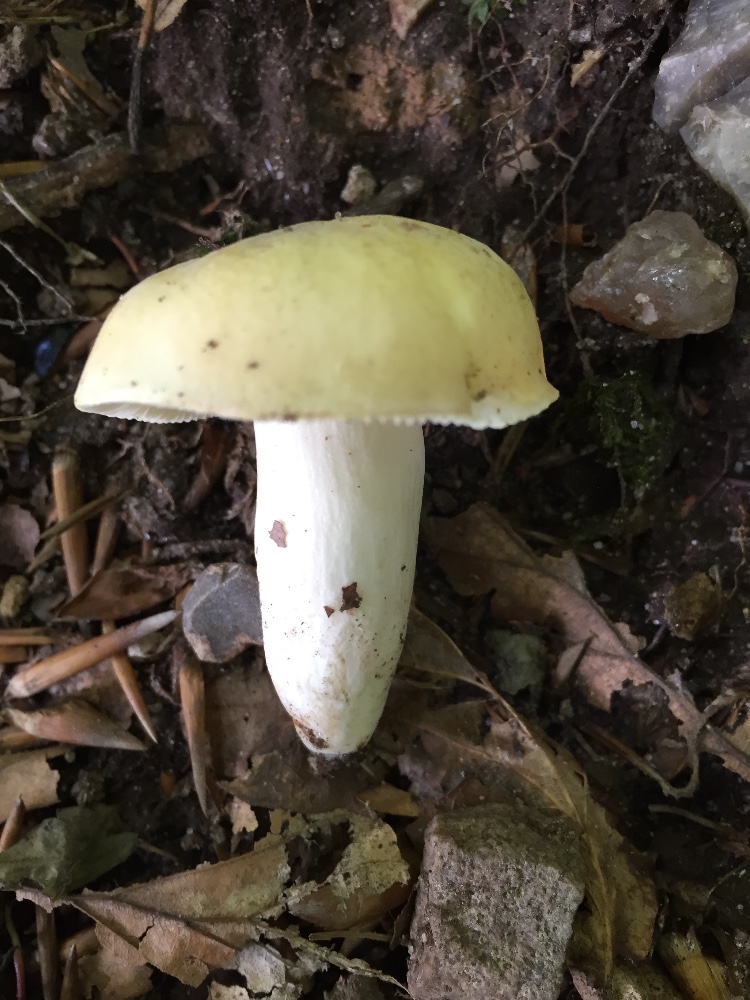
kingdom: Fungi
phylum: Basidiomycota
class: Agaricomycetes
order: Russulales
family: Russulaceae
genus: Russula
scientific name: Russula violeipes
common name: ferskengul skørhat
